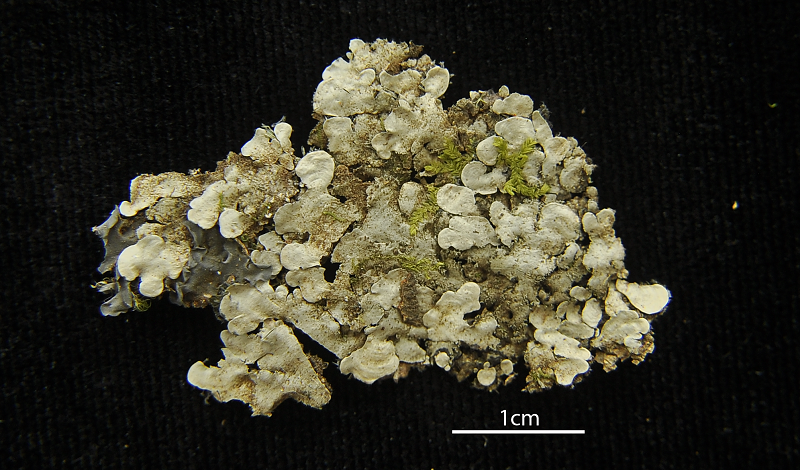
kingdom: Fungi
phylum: Ascomycota
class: Lecanoromycetes
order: Peltigerales
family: Coccocarpiaceae
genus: Coccocarpia
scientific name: Coccocarpia palmicola
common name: Salted shell lichen
